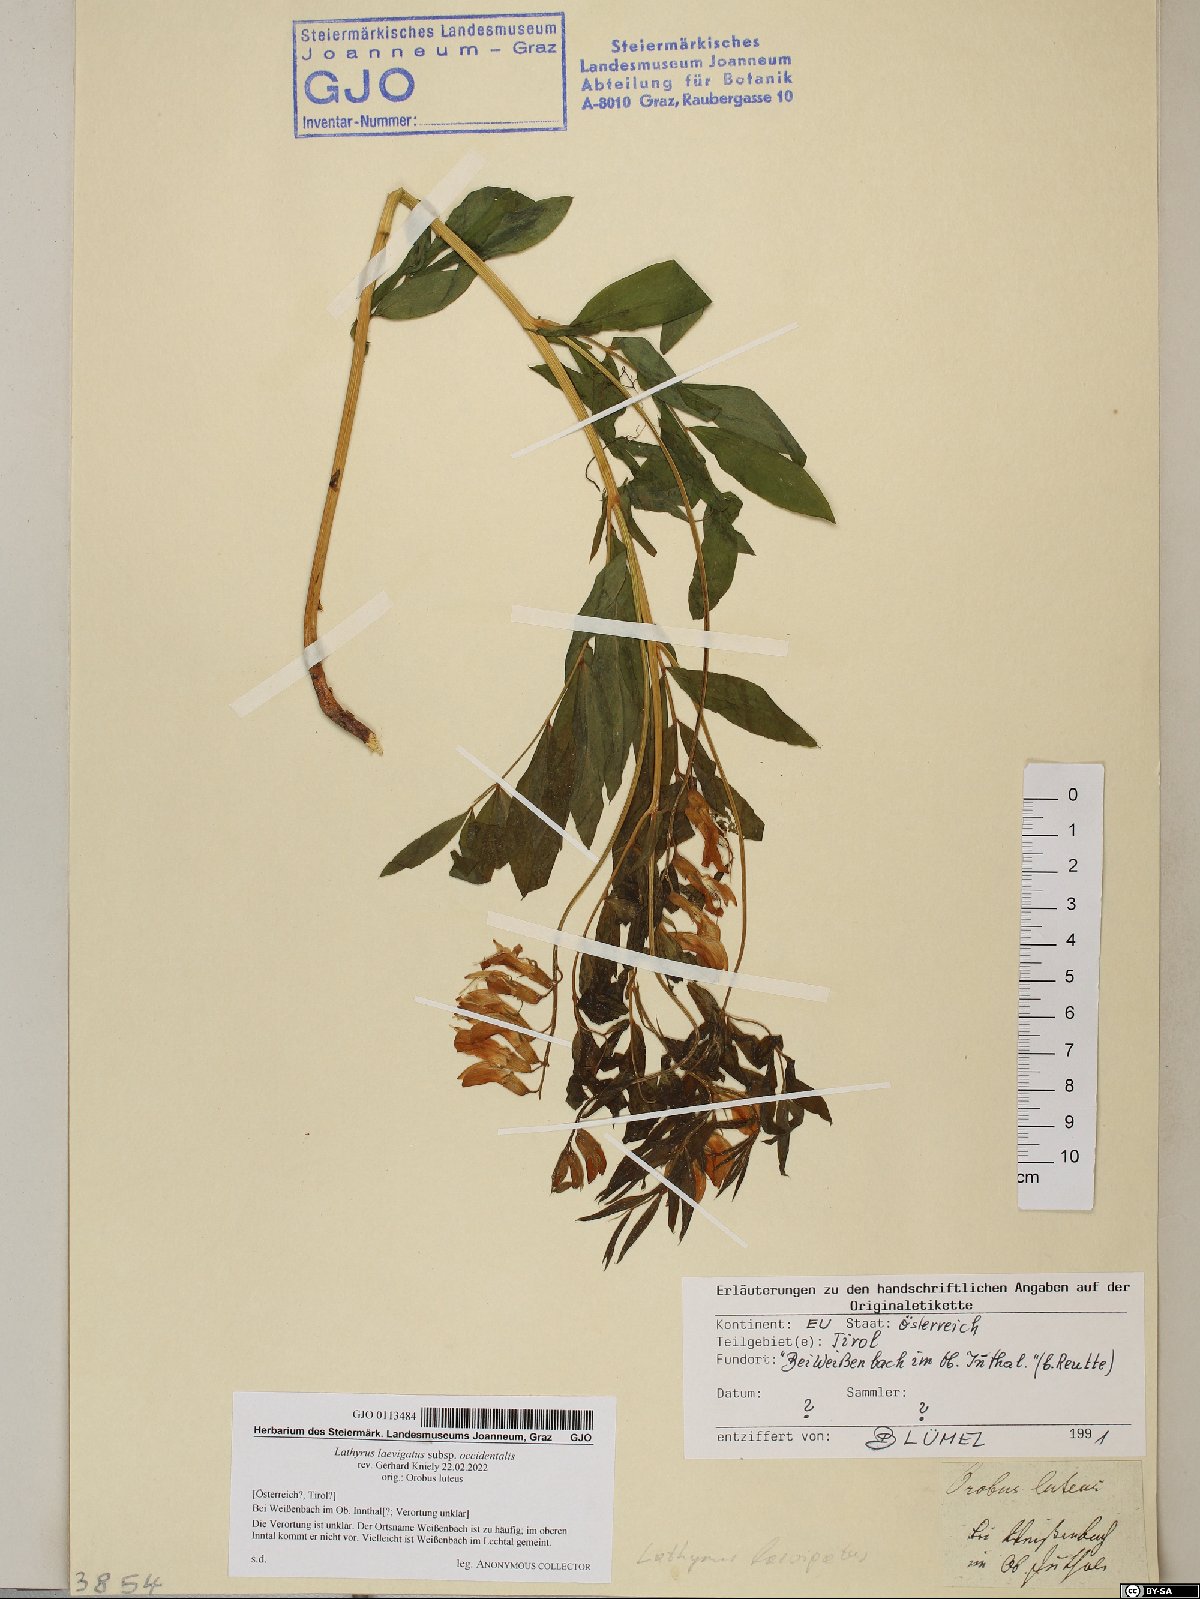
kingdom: Plantae
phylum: Tracheophyta
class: Magnoliopsida
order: Fabales
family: Fabaceae
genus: Lathyrus
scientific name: Lathyrus laevigatus
